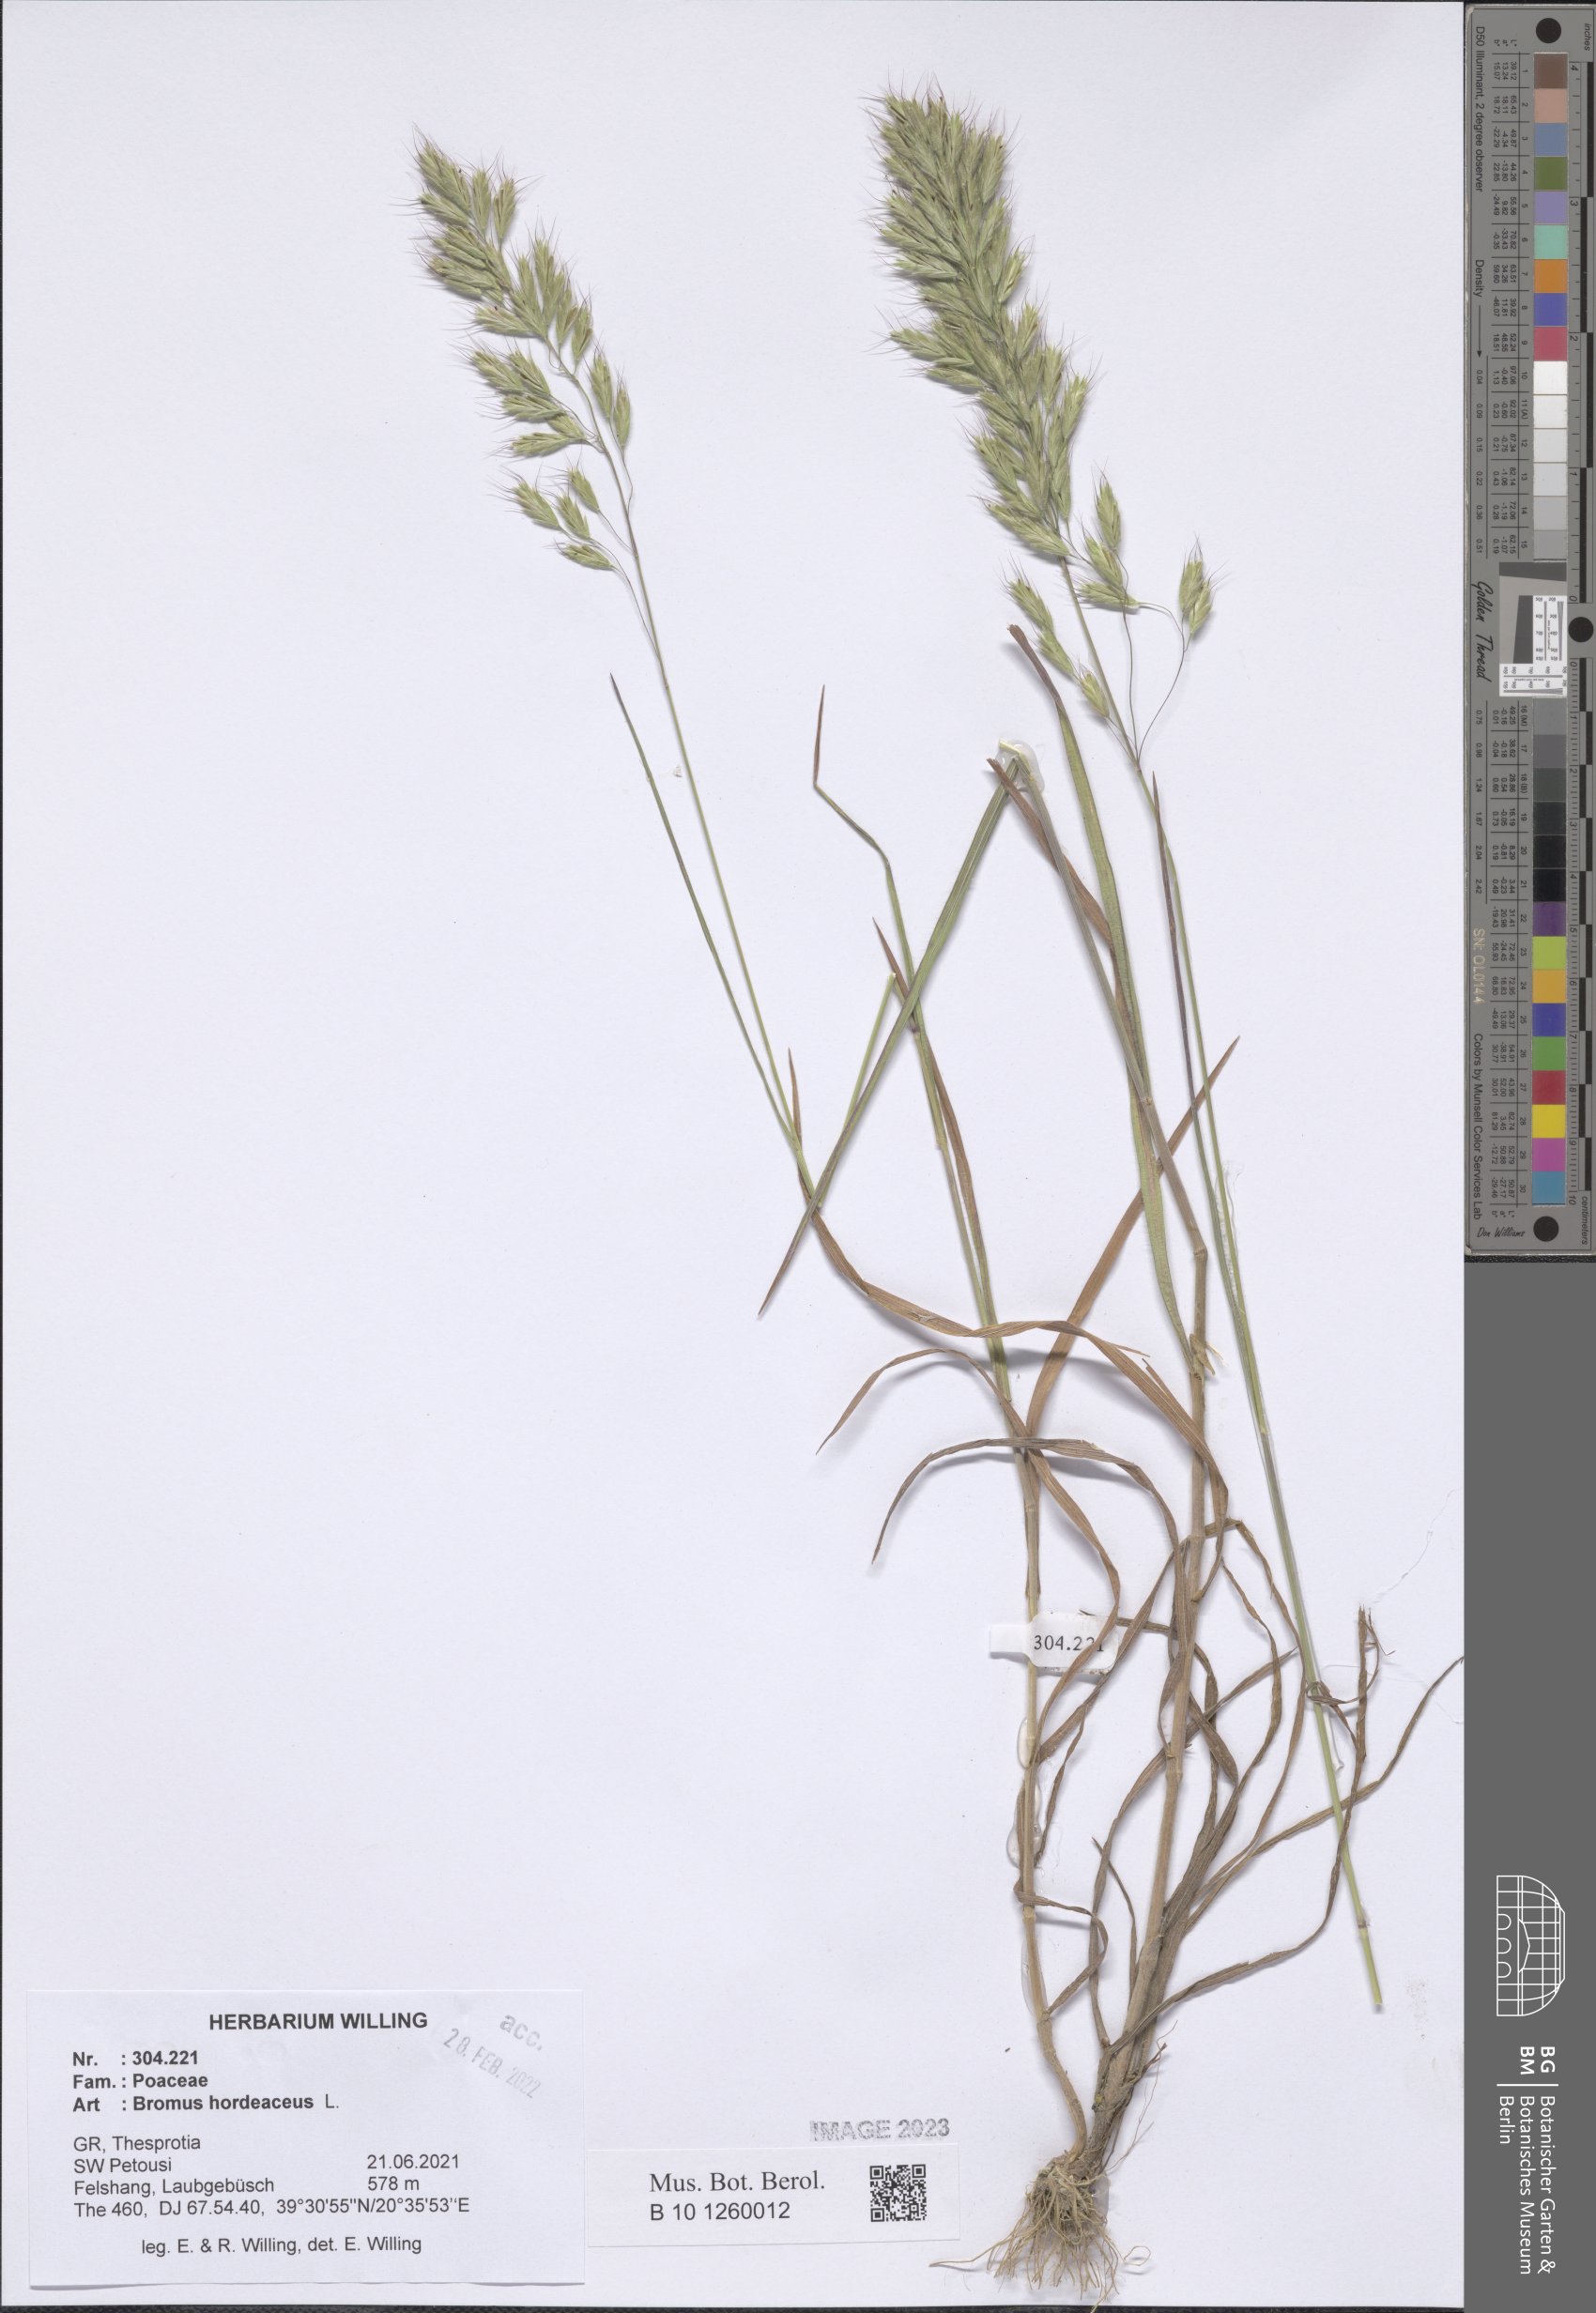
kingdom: Plantae
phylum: Tracheophyta
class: Liliopsida
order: Poales
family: Poaceae
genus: Bromus
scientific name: Bromus hordeaceus
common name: Soft brome
